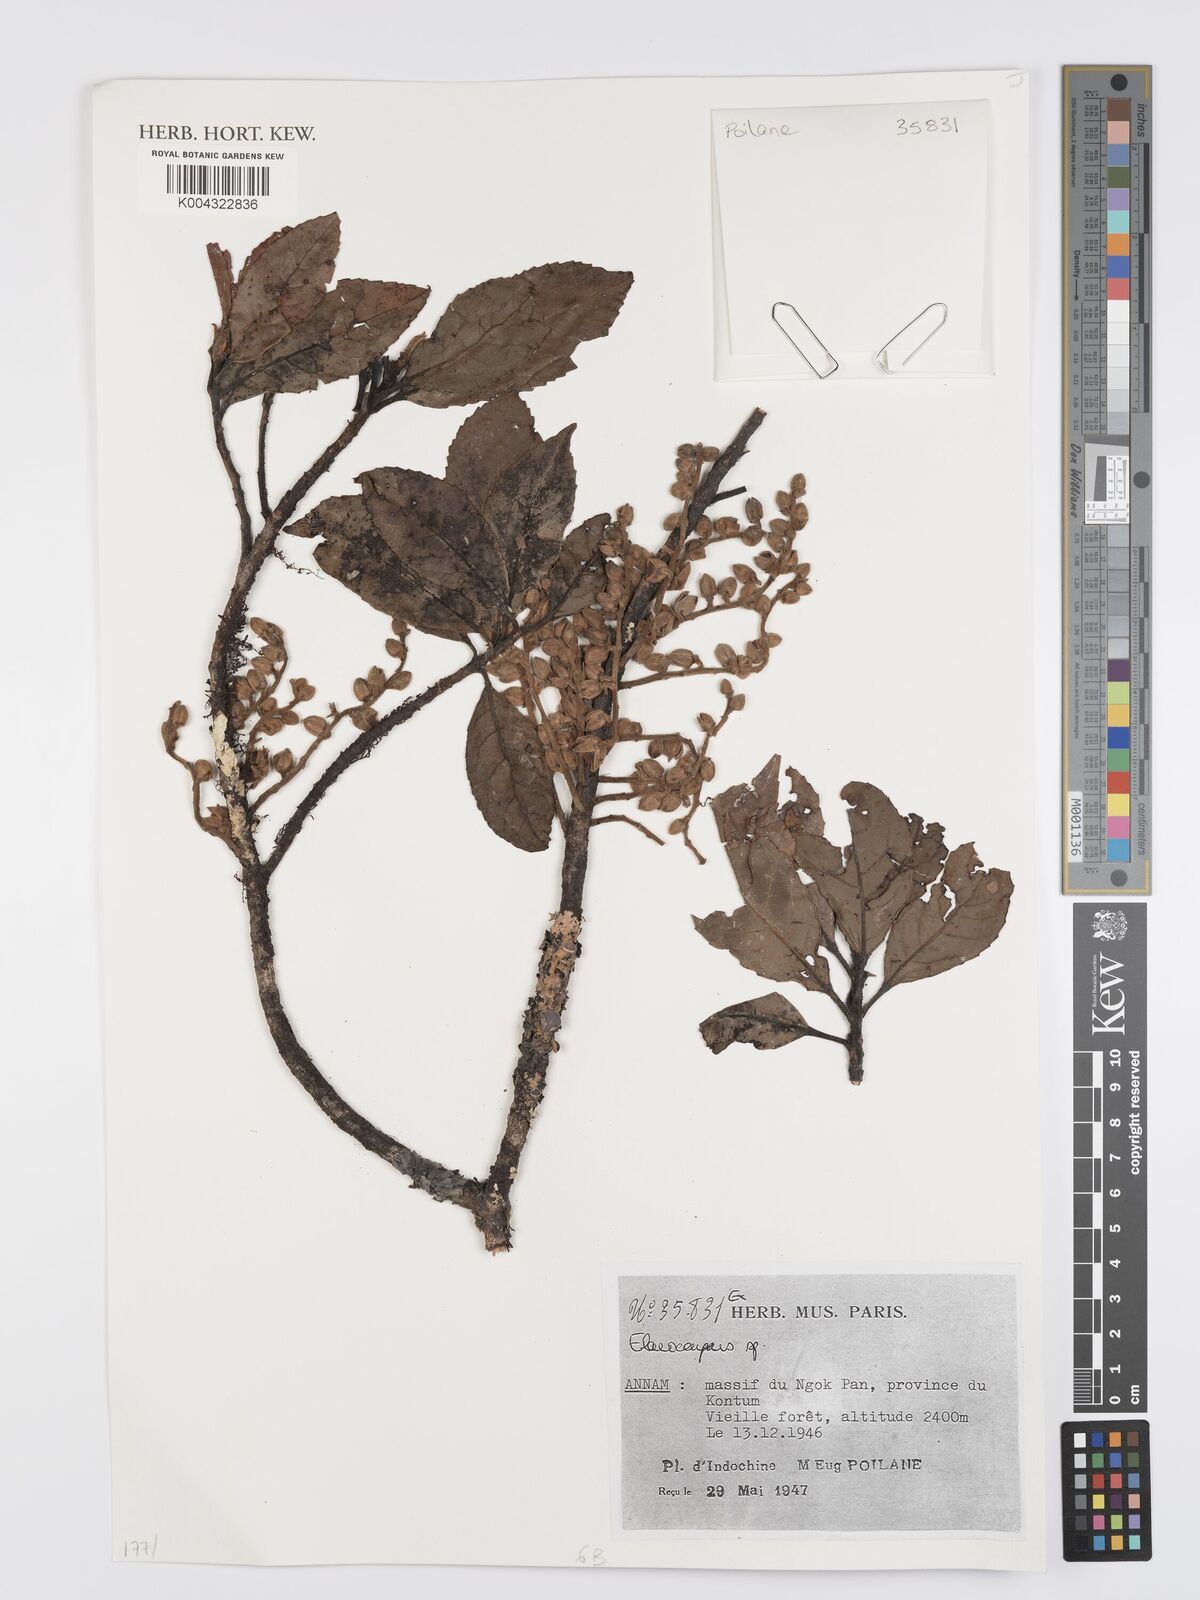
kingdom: Plantae
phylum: Tracheophyta
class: Magnoliopsida
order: Oxalidales
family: Elaeocarpaceae
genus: Elaeocarpus
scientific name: Elaeocarpus
